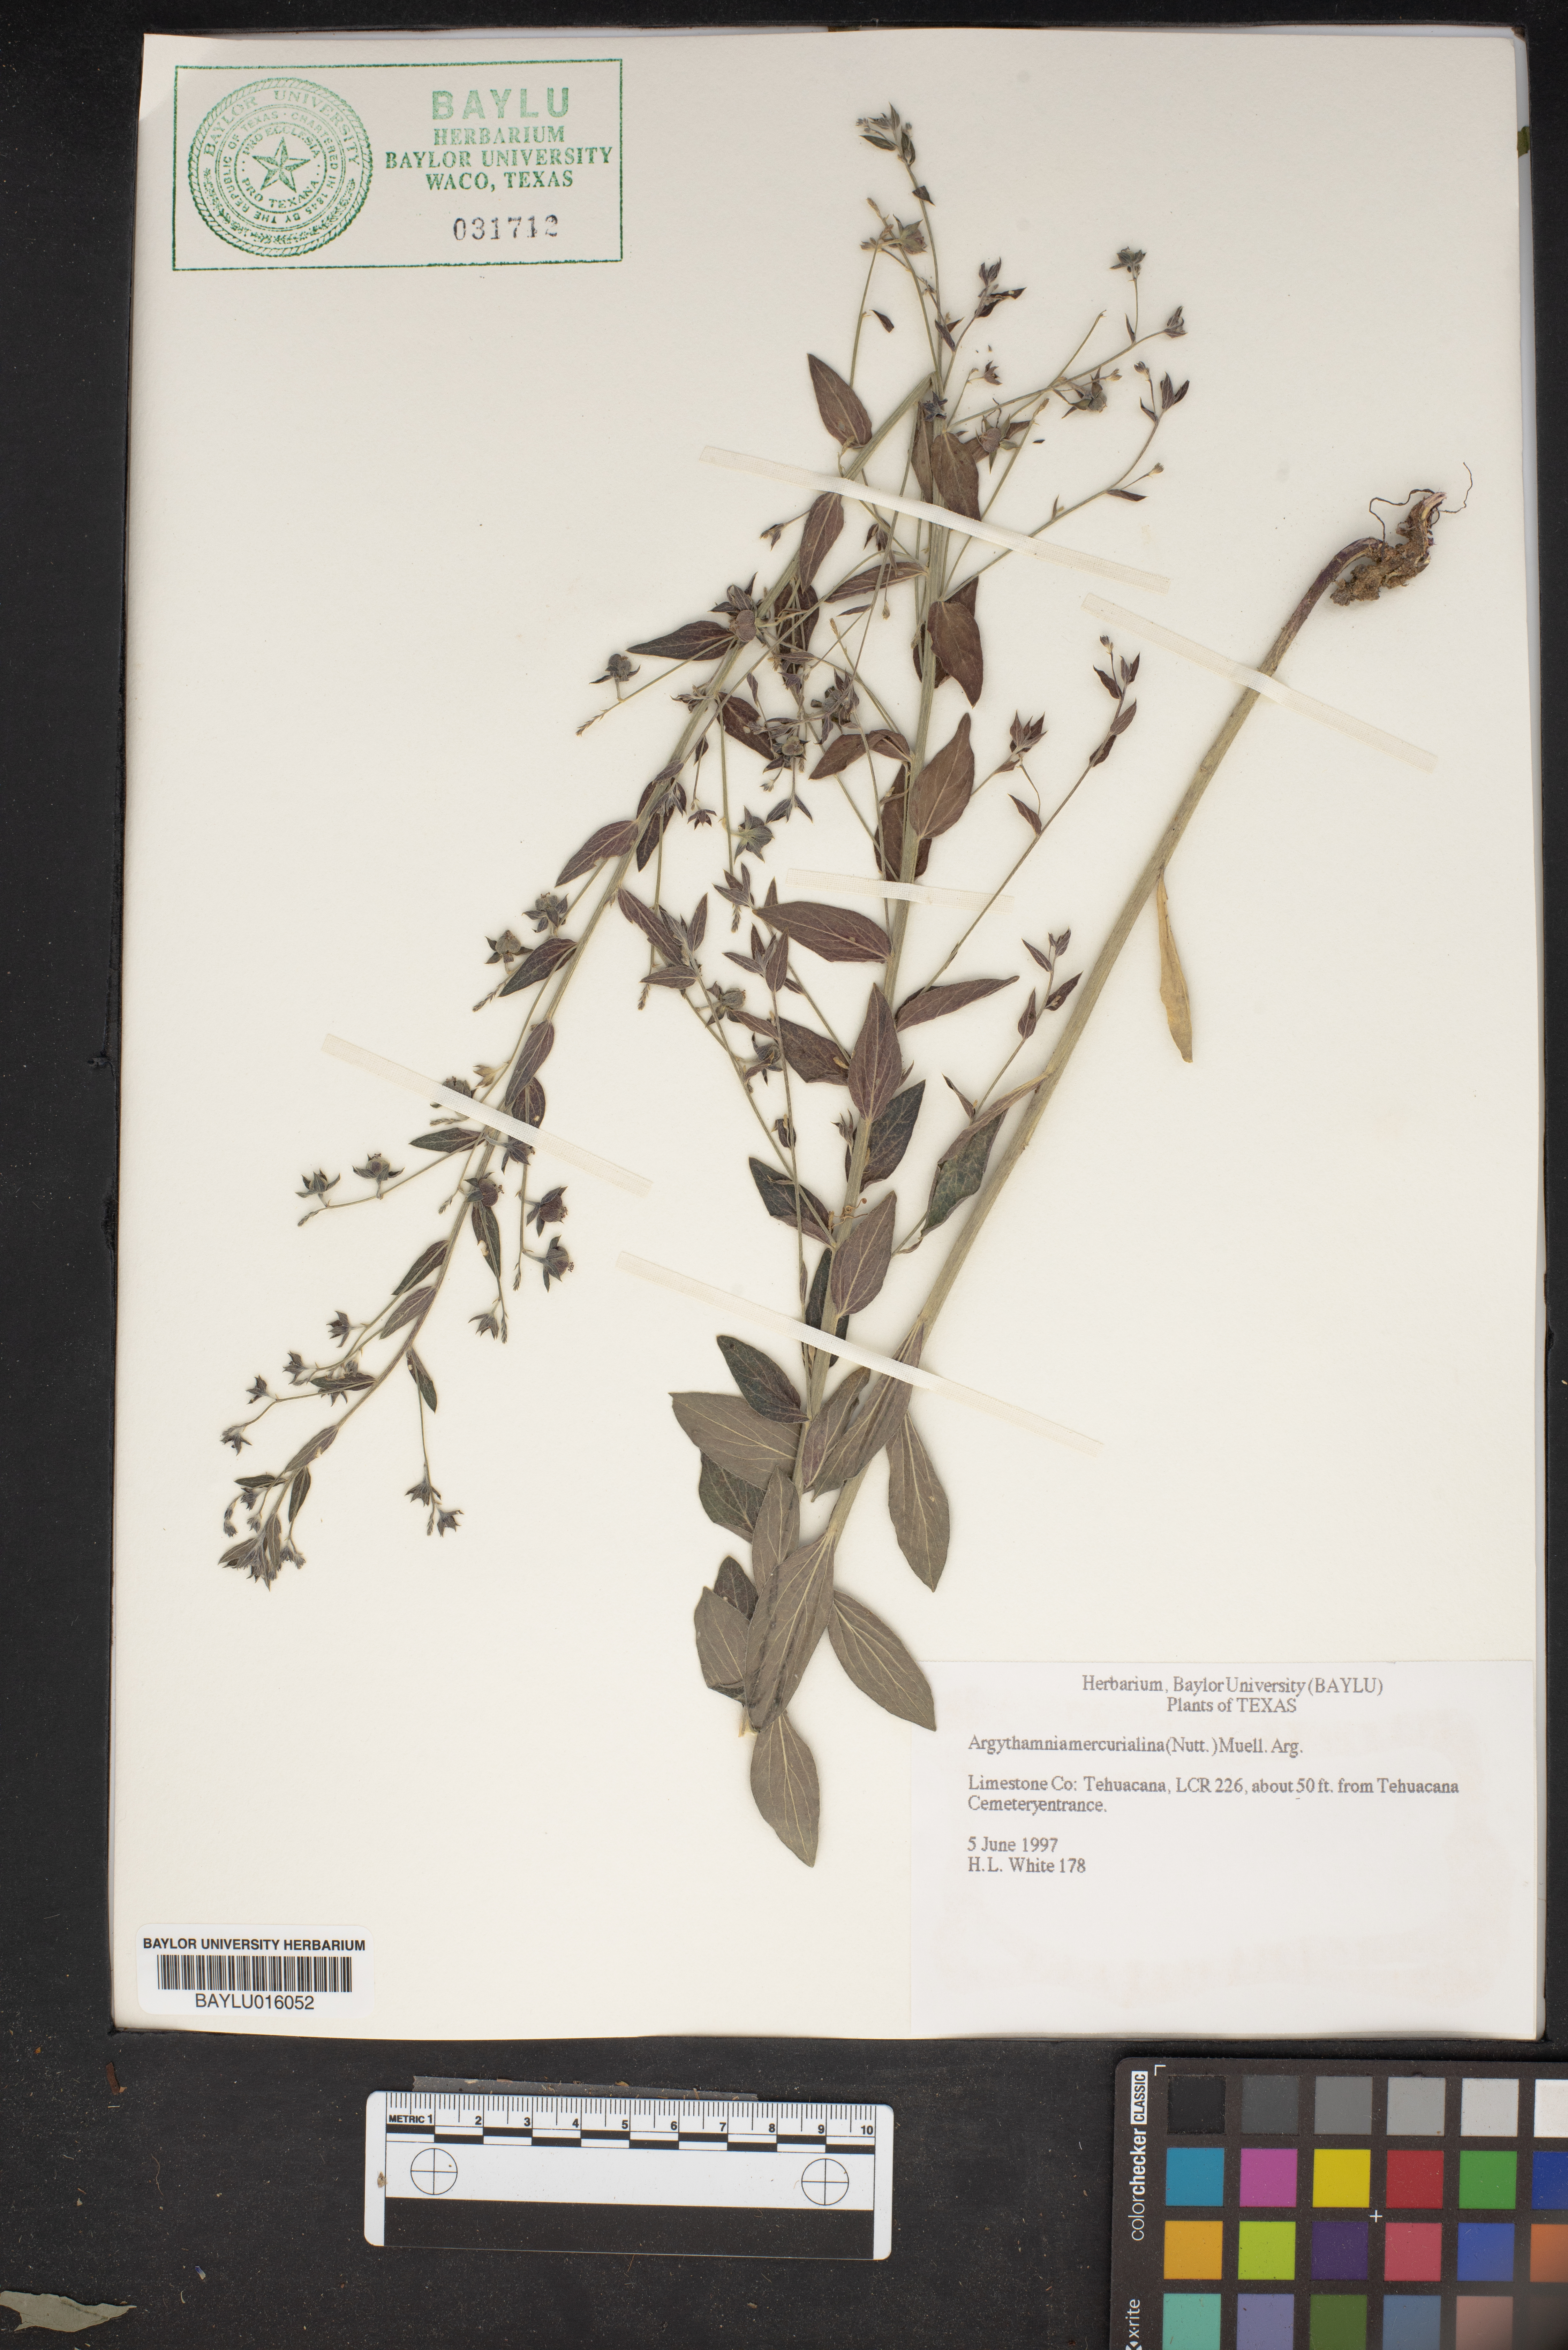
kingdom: Plantae
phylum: Tracheophyta
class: Magnoliopsida
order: Malpighiales
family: Euphorbiaceae
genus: Ditaxis
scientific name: Ditaxis mercurialina
